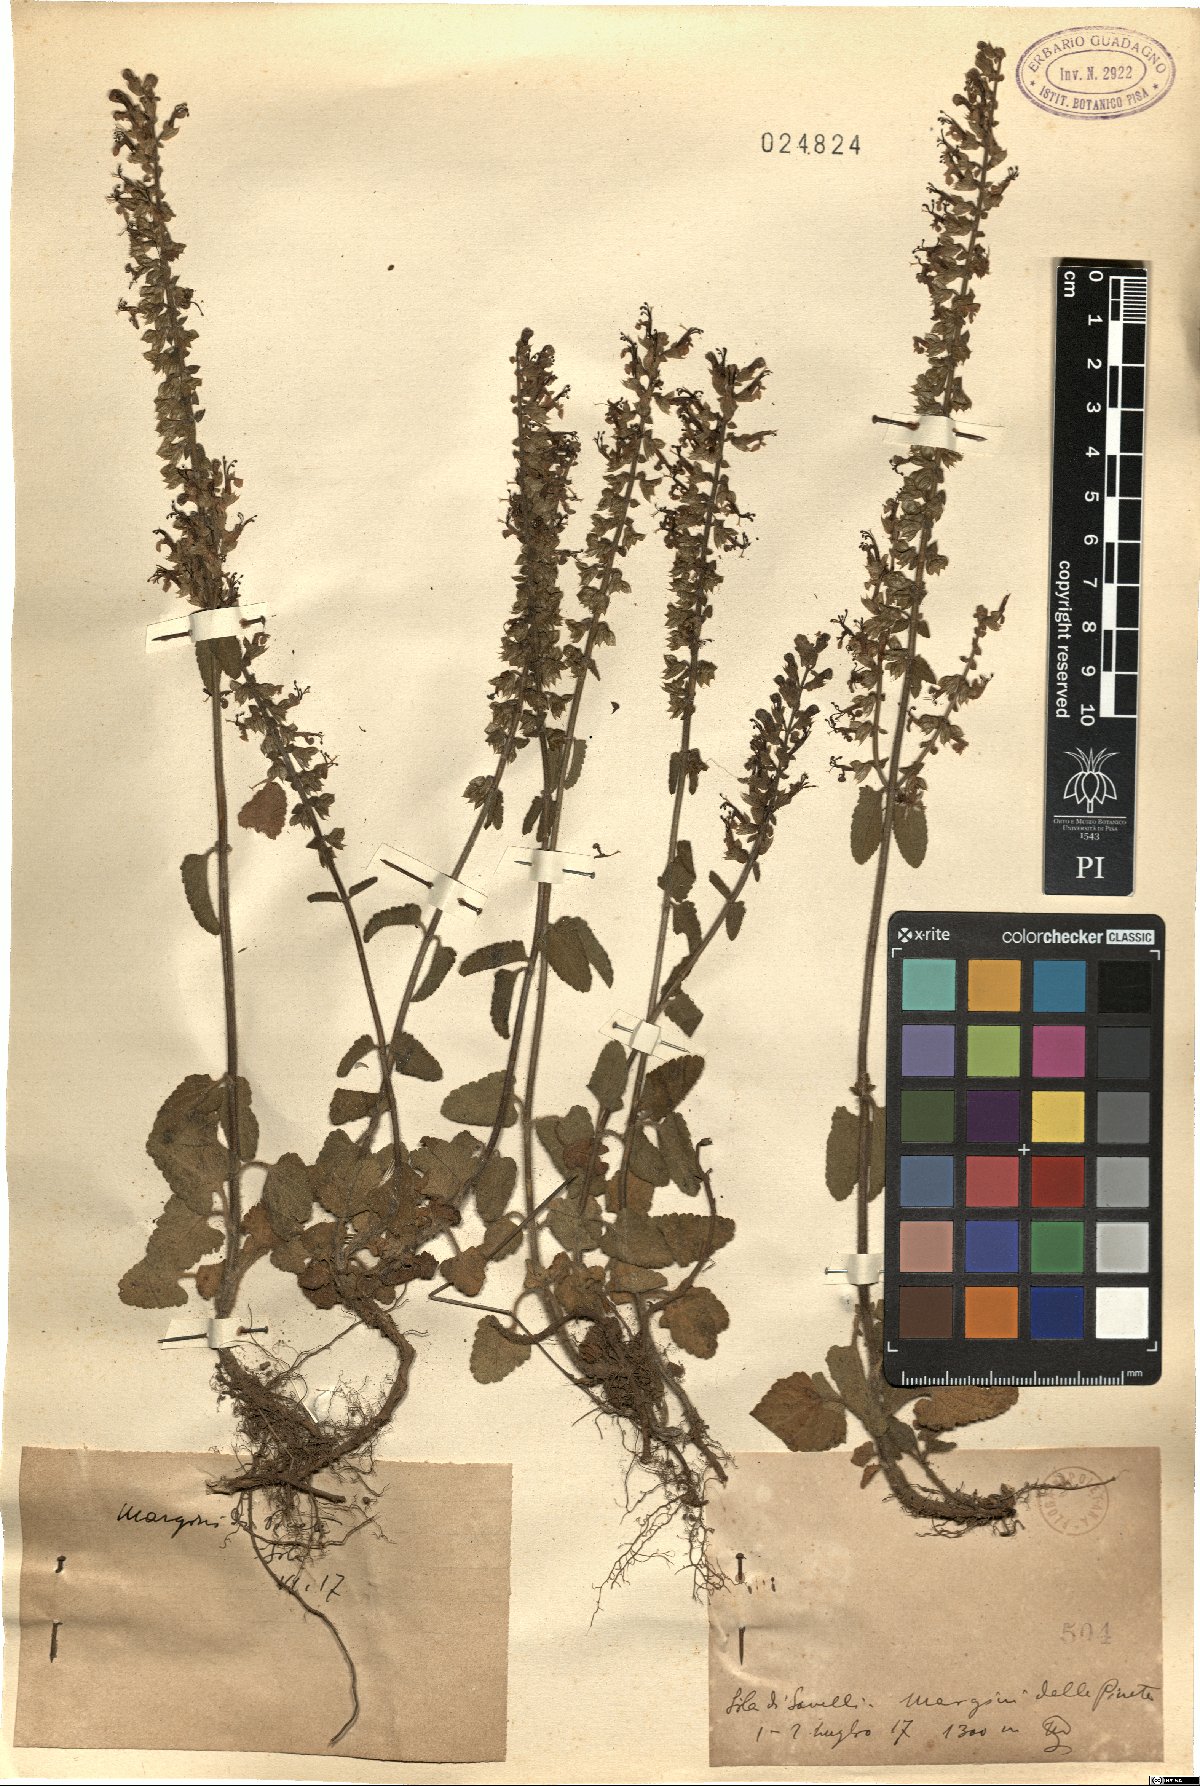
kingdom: Plantae
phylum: Tracheophyta
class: Magnoliopsida
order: Lamiales
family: Lamiaceae
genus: Teucrium
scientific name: Teucrium
